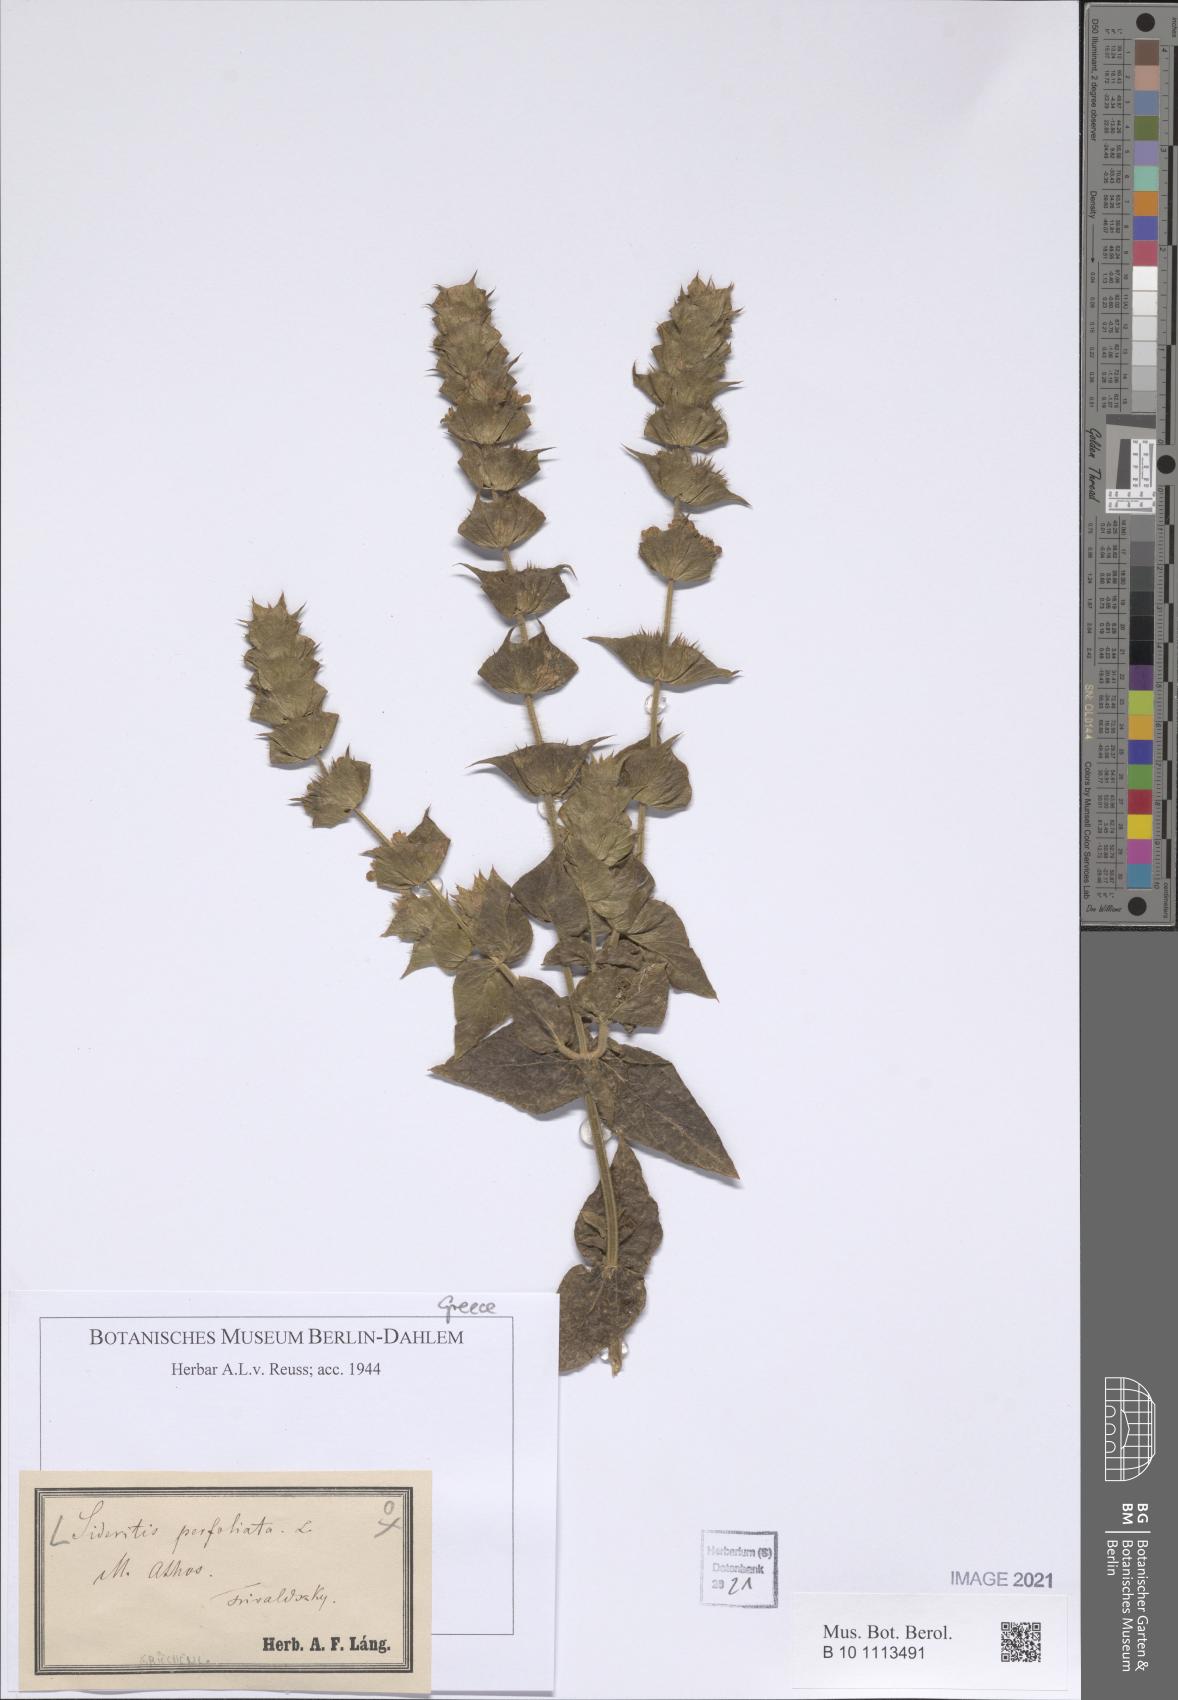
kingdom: Plantae
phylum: Tracheophyta
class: Magnoliopsida
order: Lamiales
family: Lamiaceae
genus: Sideritis
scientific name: Sideritis perfoliata
